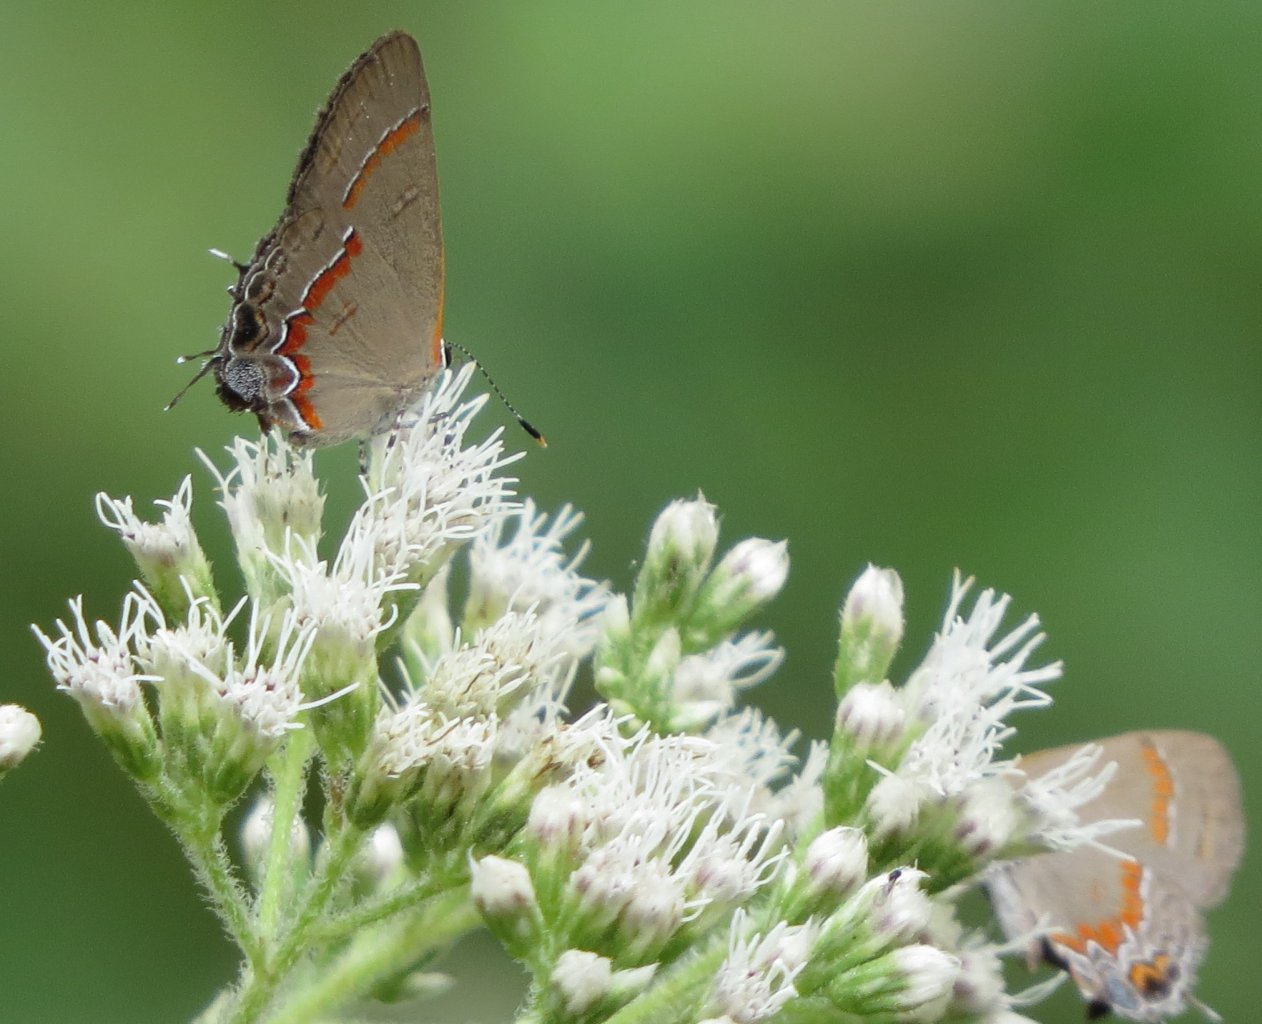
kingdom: Animalia
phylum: Arthropoda
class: Insecta
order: Lepidoptera
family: Lycaenidae
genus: Calycopis
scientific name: Calycopis cecrops
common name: Red-banded Hairstreak
